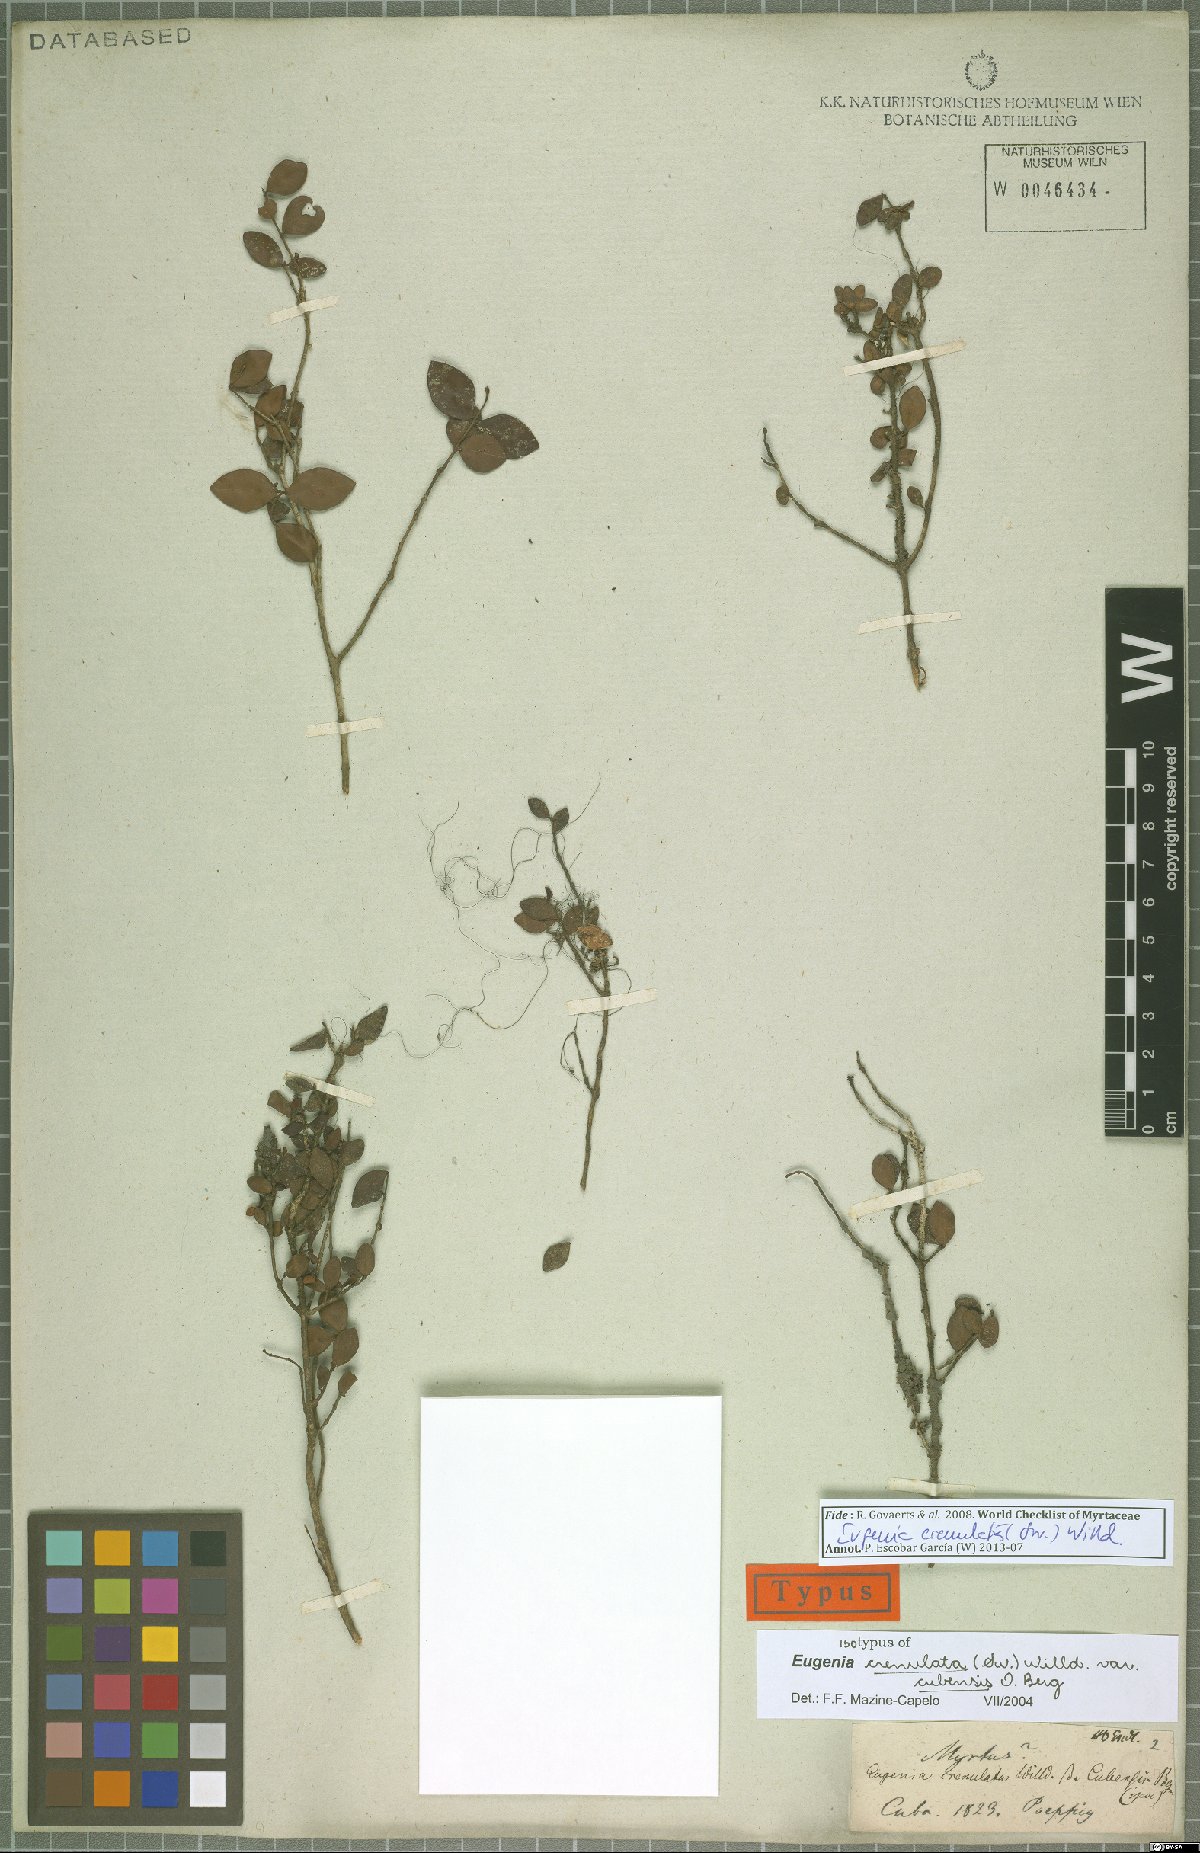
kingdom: Plantae
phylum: Tracheophyta
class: Magnoliopsida
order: Myrtales
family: Myrtaceae
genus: Eugenia
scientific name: Eugenia crenulata
